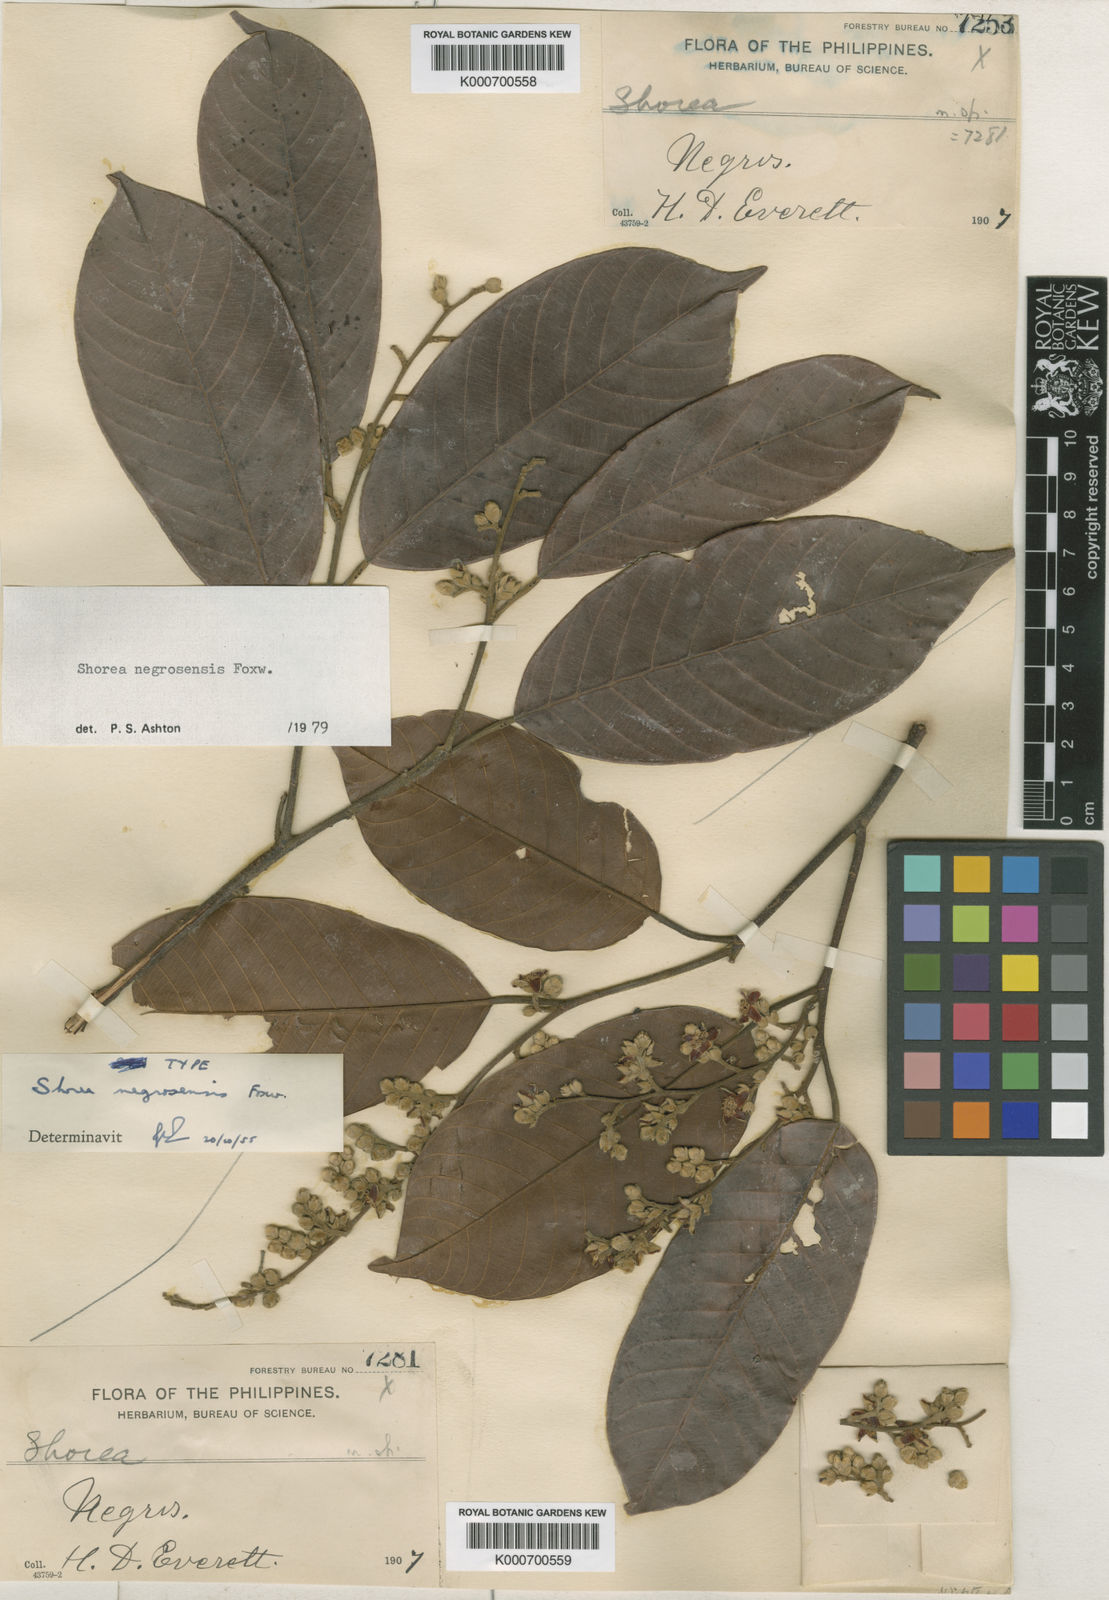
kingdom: Plantae
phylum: Tracheophyta
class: Magnoliopsida
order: Malvales
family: Dipterocarpaceae
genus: Shorea
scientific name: Shorea negrosensis
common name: Red lauan
